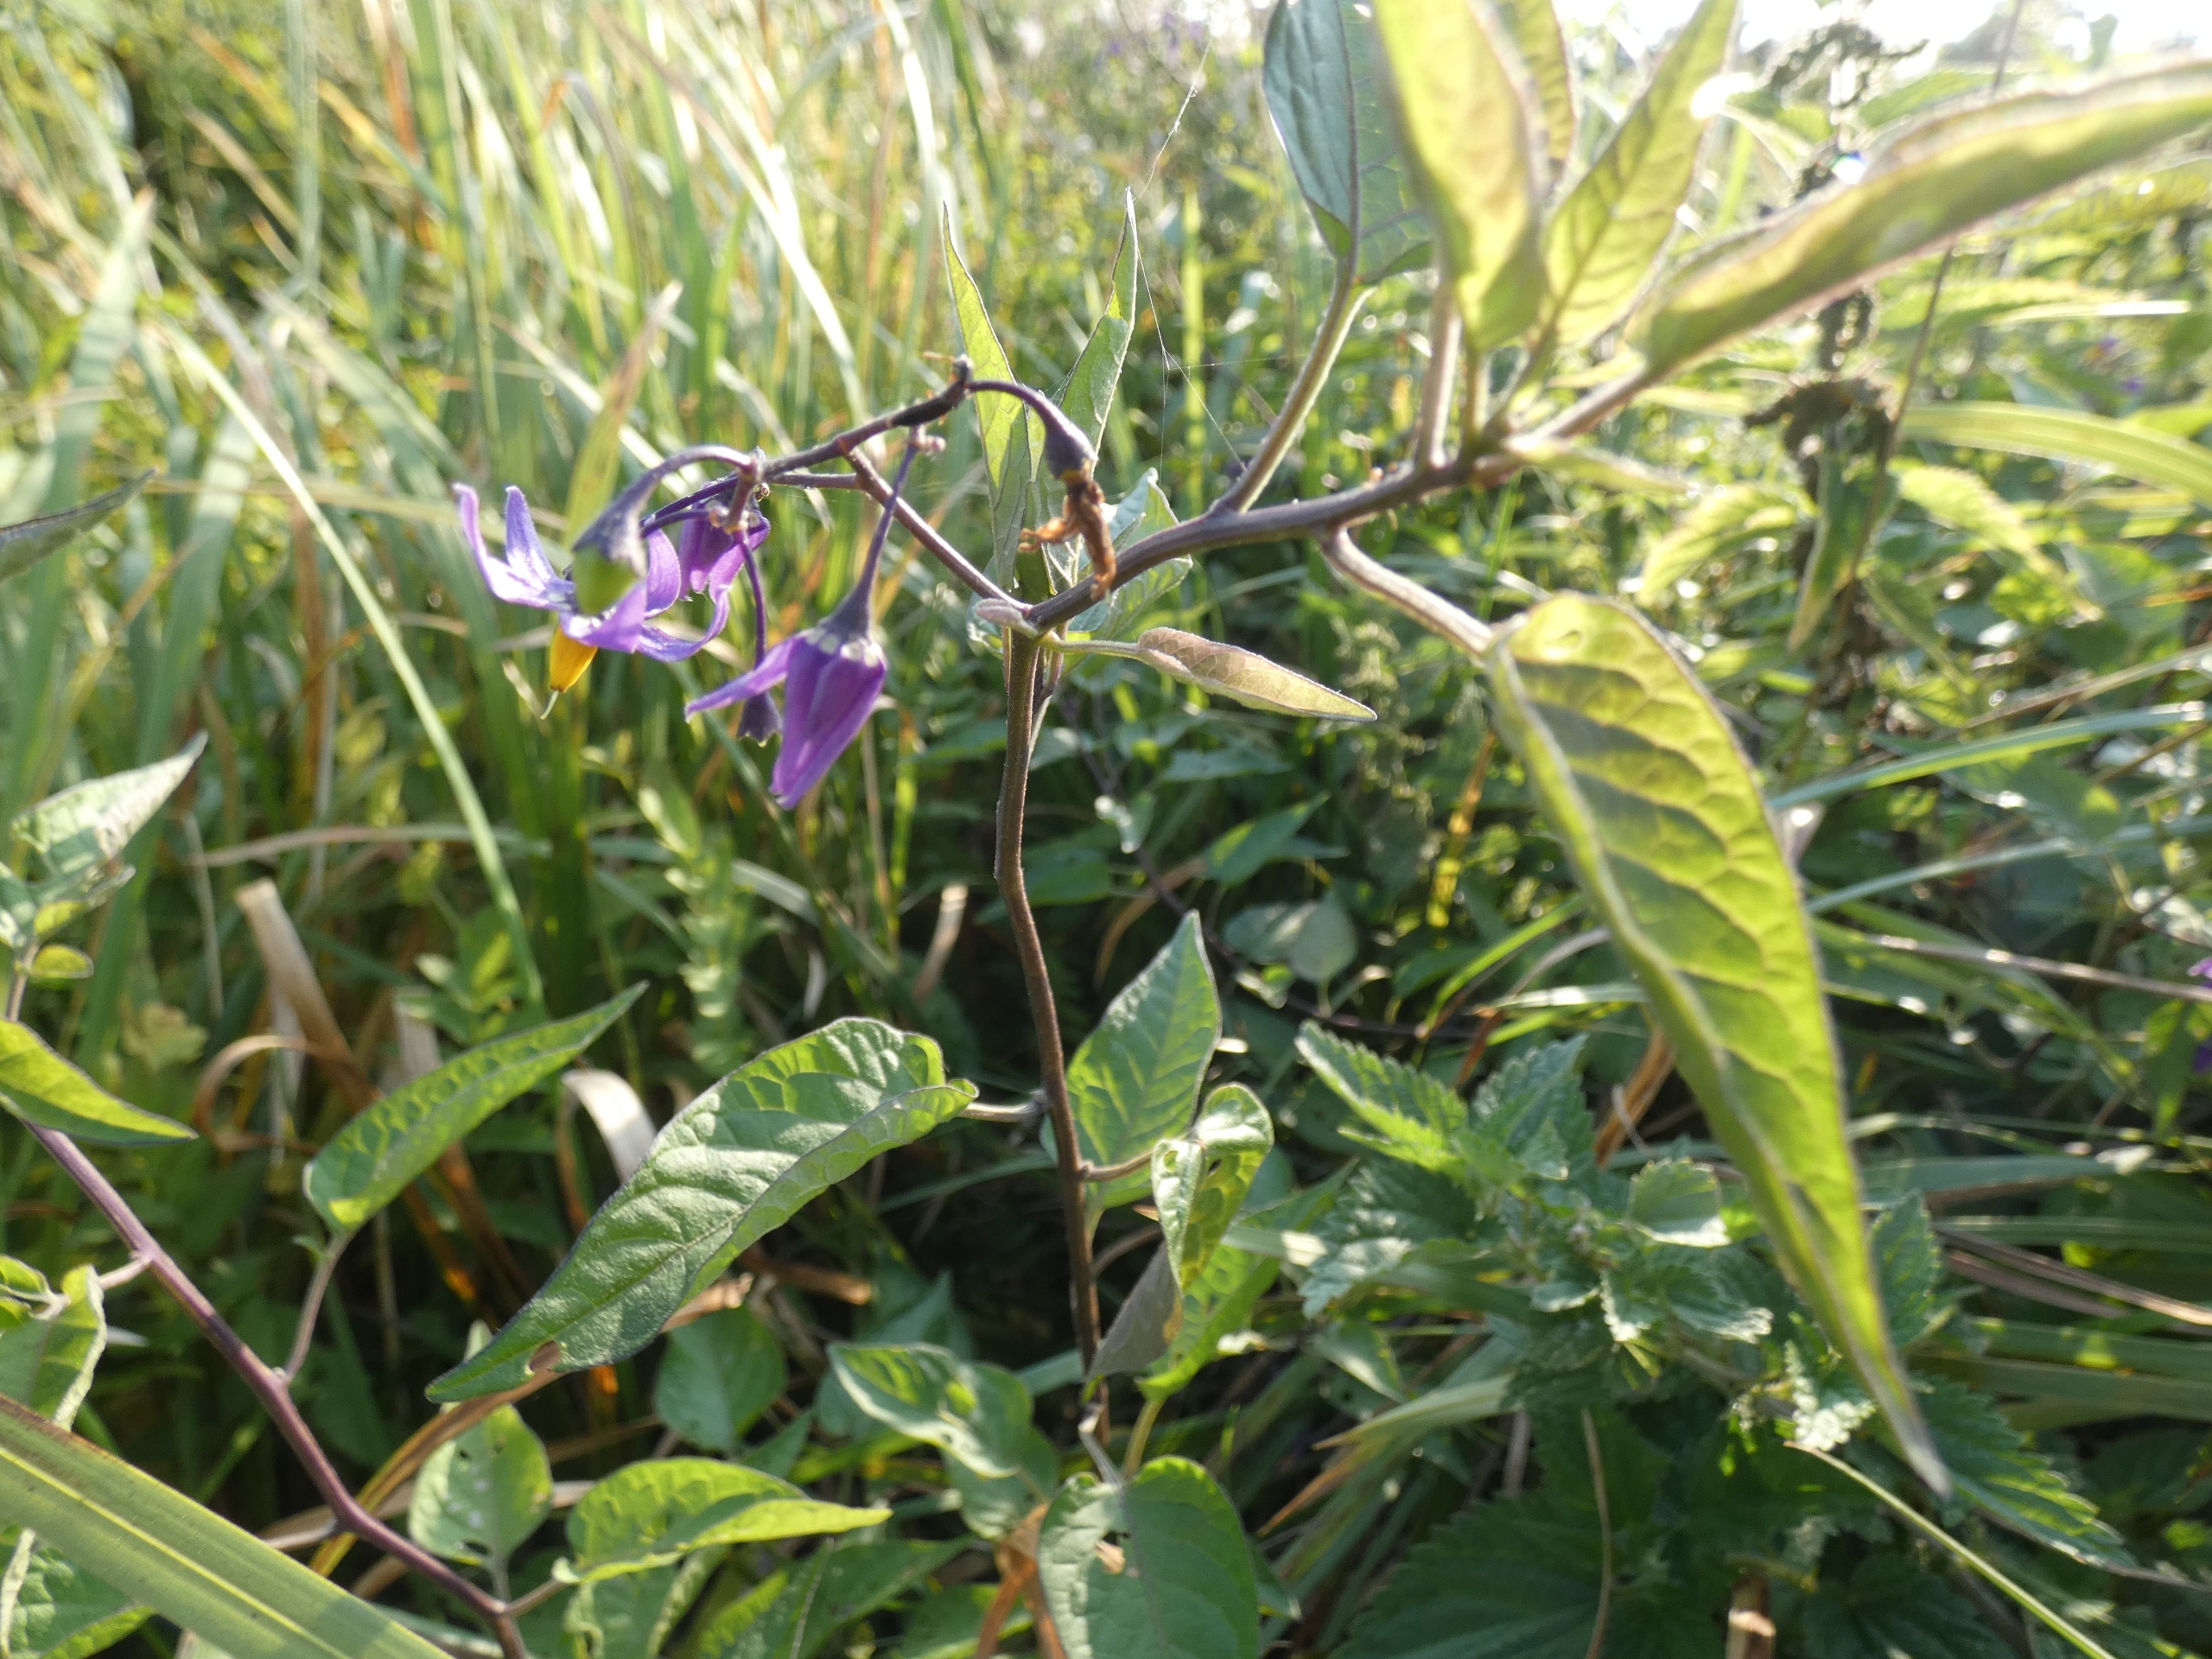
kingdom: Plantae
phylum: Tracheophyta
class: Magnoliopsida
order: Solanales
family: Solanaceae
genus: Solanum
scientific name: Solanum dulcamara
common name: Bittersød natskygge
